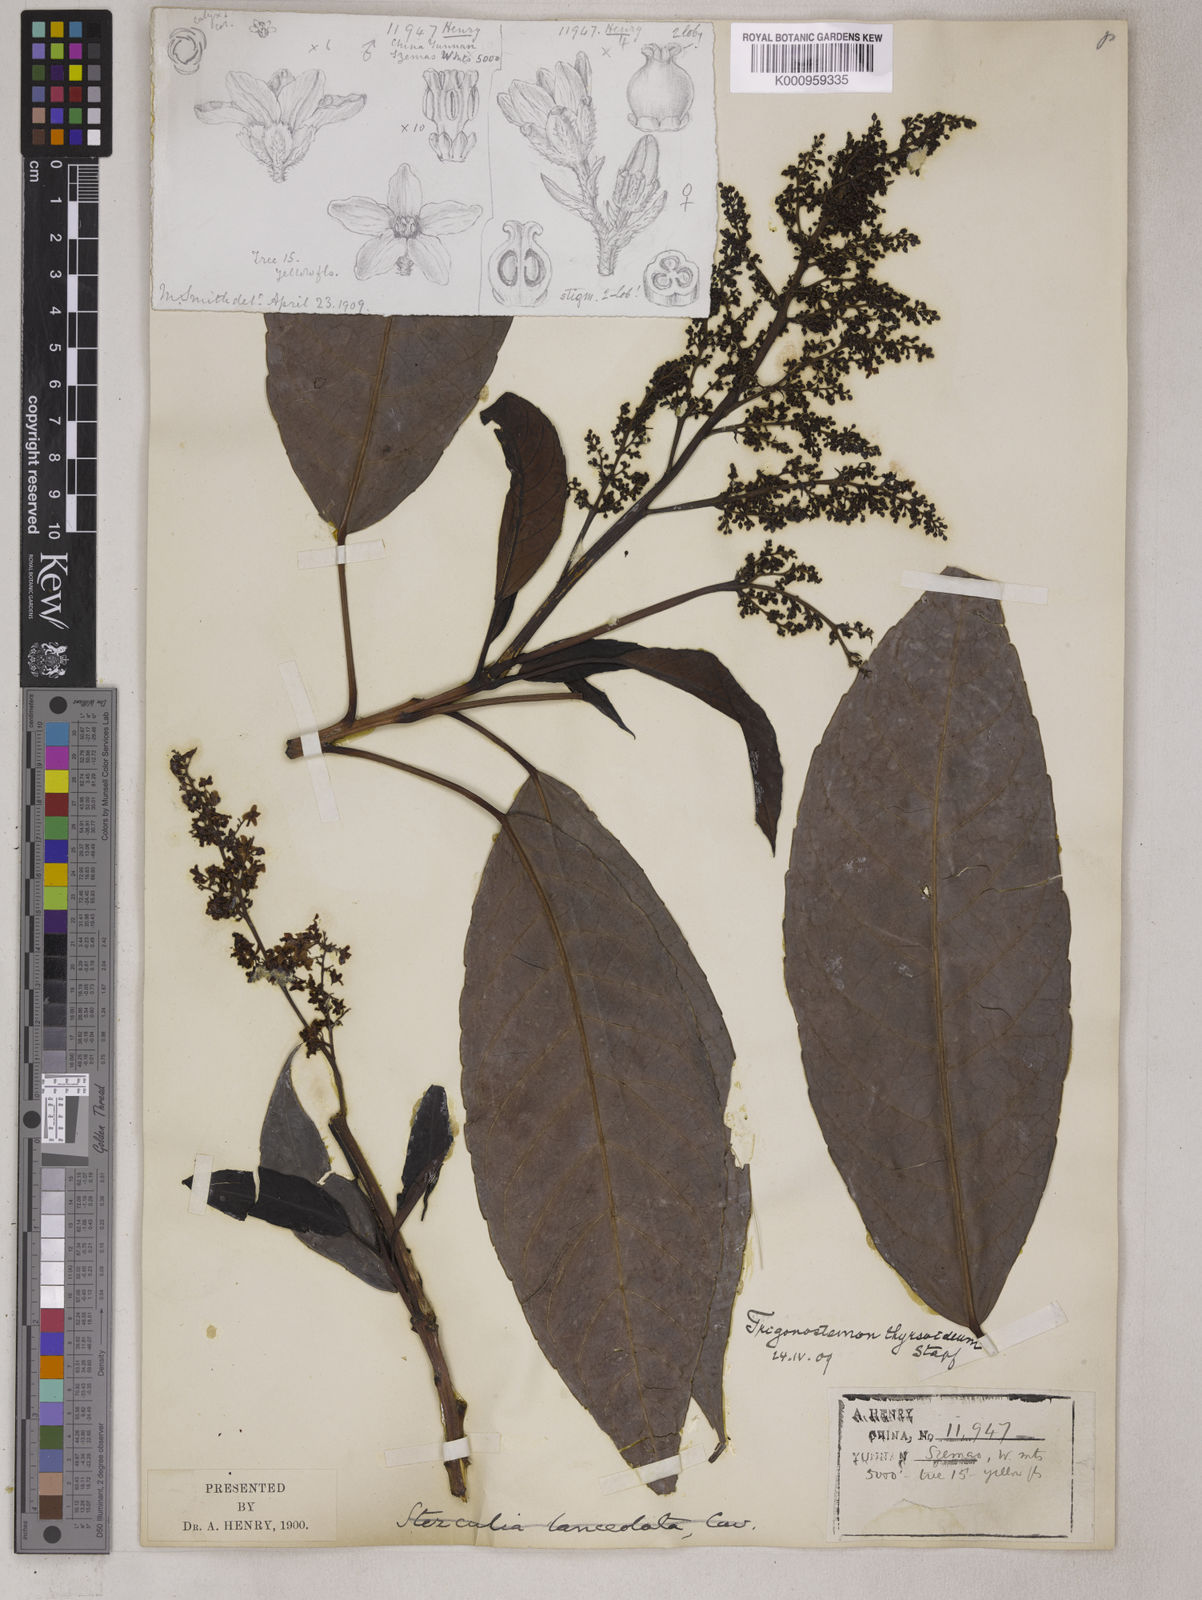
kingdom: Plantae
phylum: Tracheophyta
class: Magnoliopsida
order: Malpighiales
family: Euphorbiaceae
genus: Trigonostemon
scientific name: Trigonostemon philippinensis
